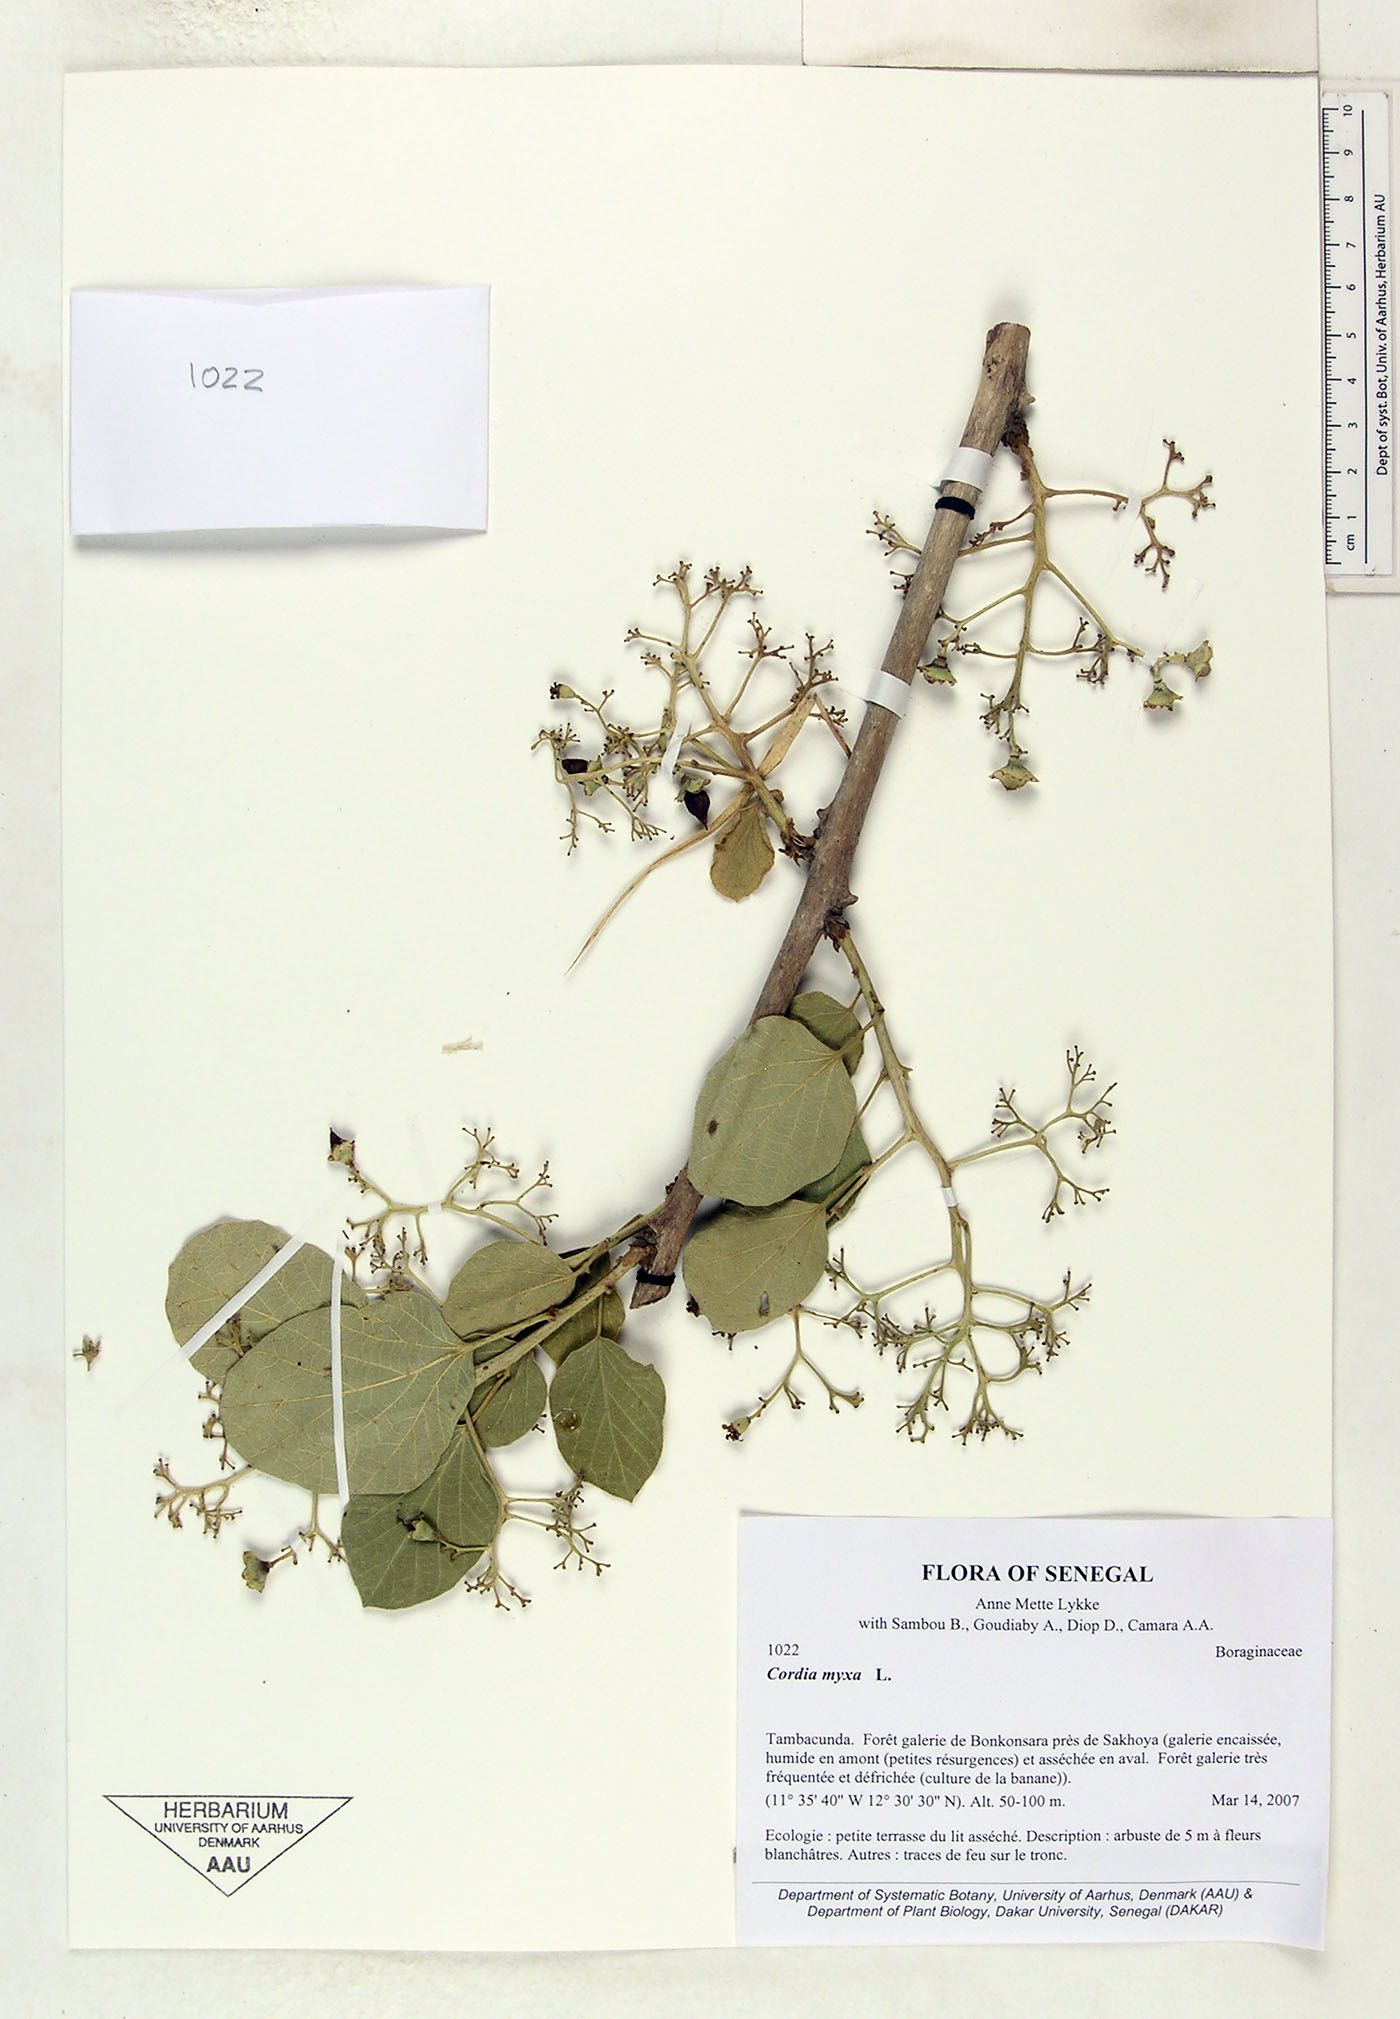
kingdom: Plantae
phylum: Tracheophyta
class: Magnoliopsida
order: Boraginales
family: Cordiaceae
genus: Cordia
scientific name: Cordia myxa
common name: Assyrian plum
